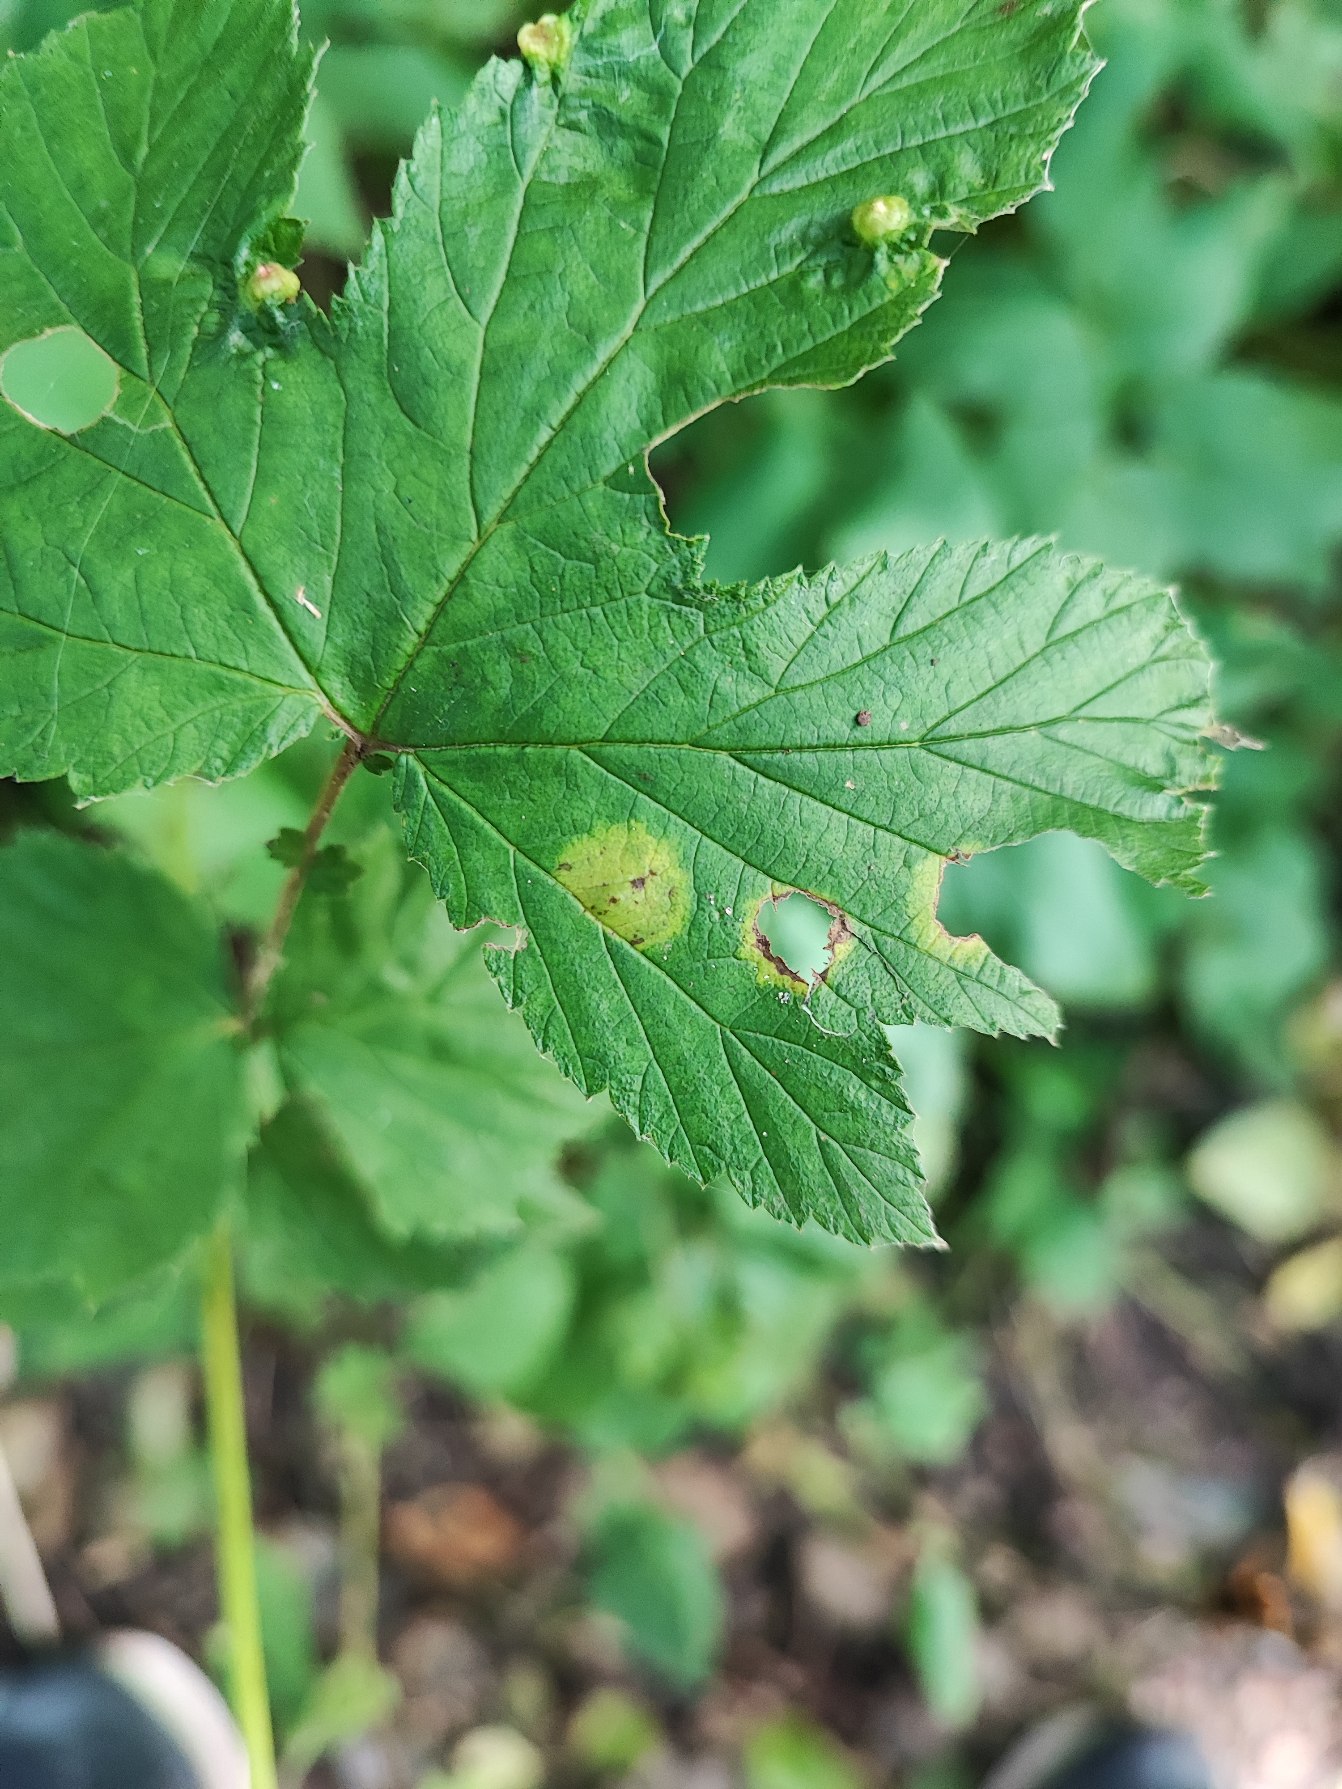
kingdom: Animalia
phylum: Arthropoda
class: Insecta
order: Diptera
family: Cecidomyiidae
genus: Dasineura
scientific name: Dasineura pustulans
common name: Mjødurtblistgalmyg
